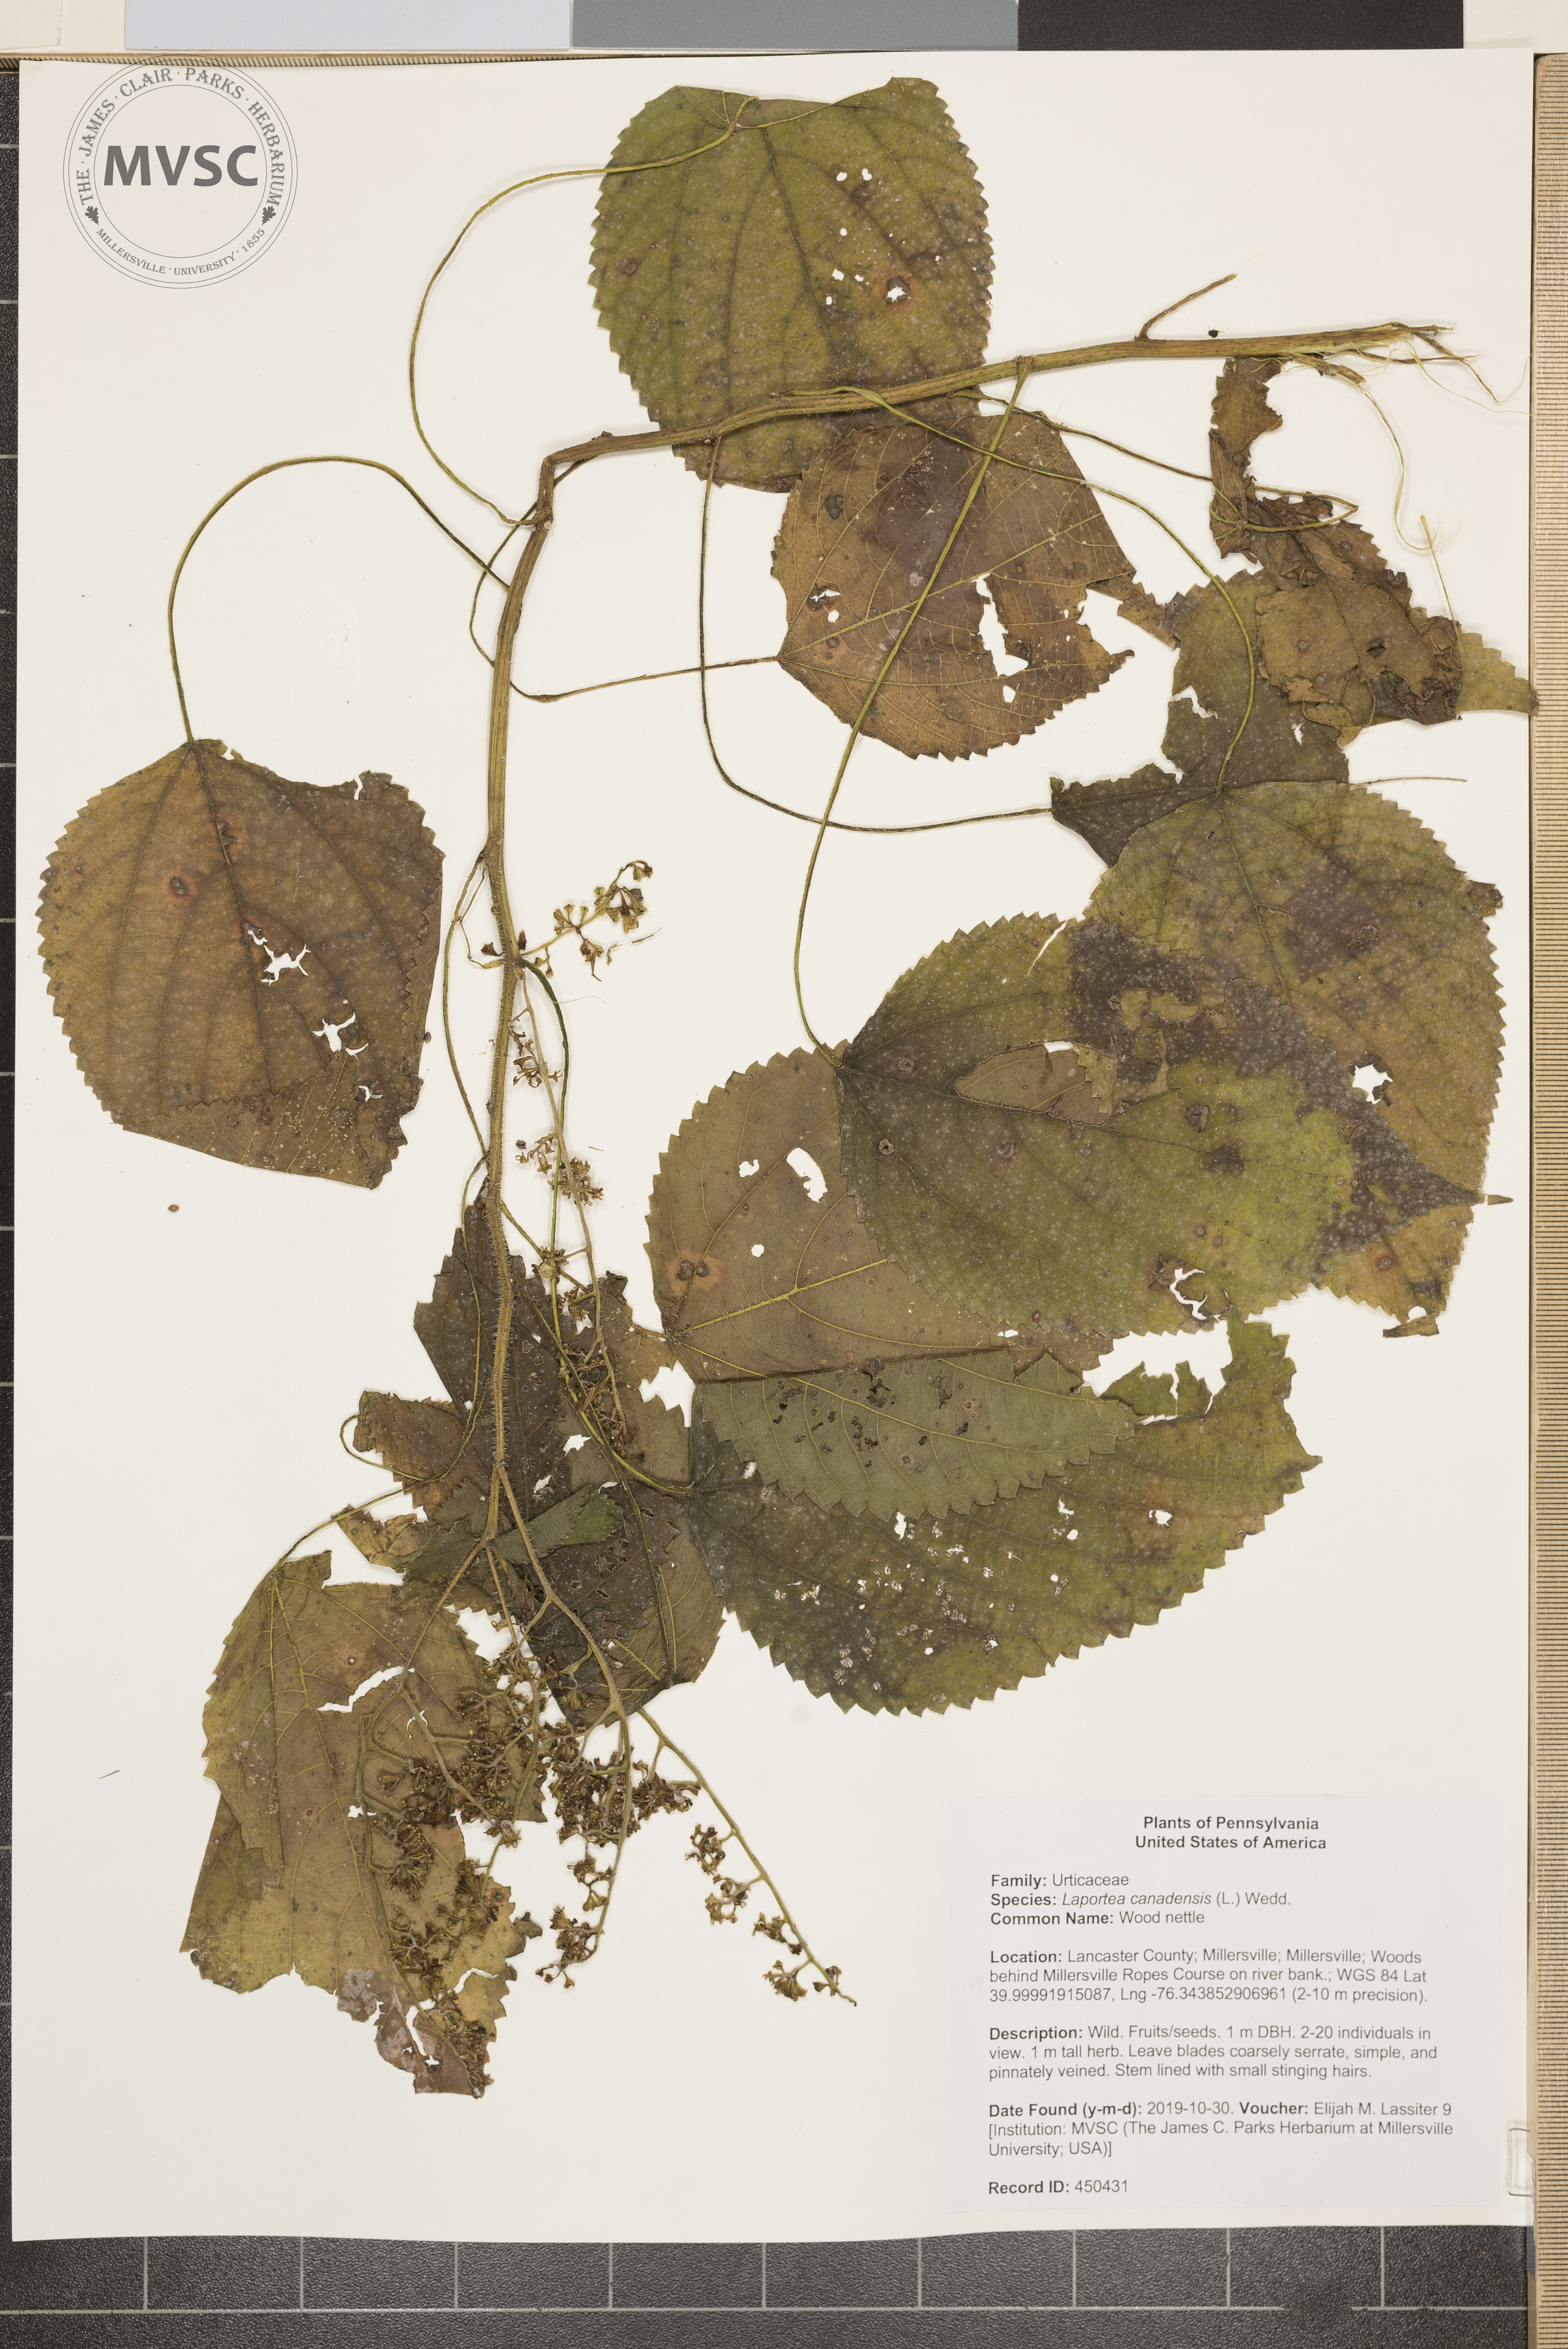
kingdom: Plantae
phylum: Tracheophyta
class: Magnoliopsida
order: Rosales
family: Urticaceae
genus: Laportea
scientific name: Laportea canadensis
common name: Wood nettle
